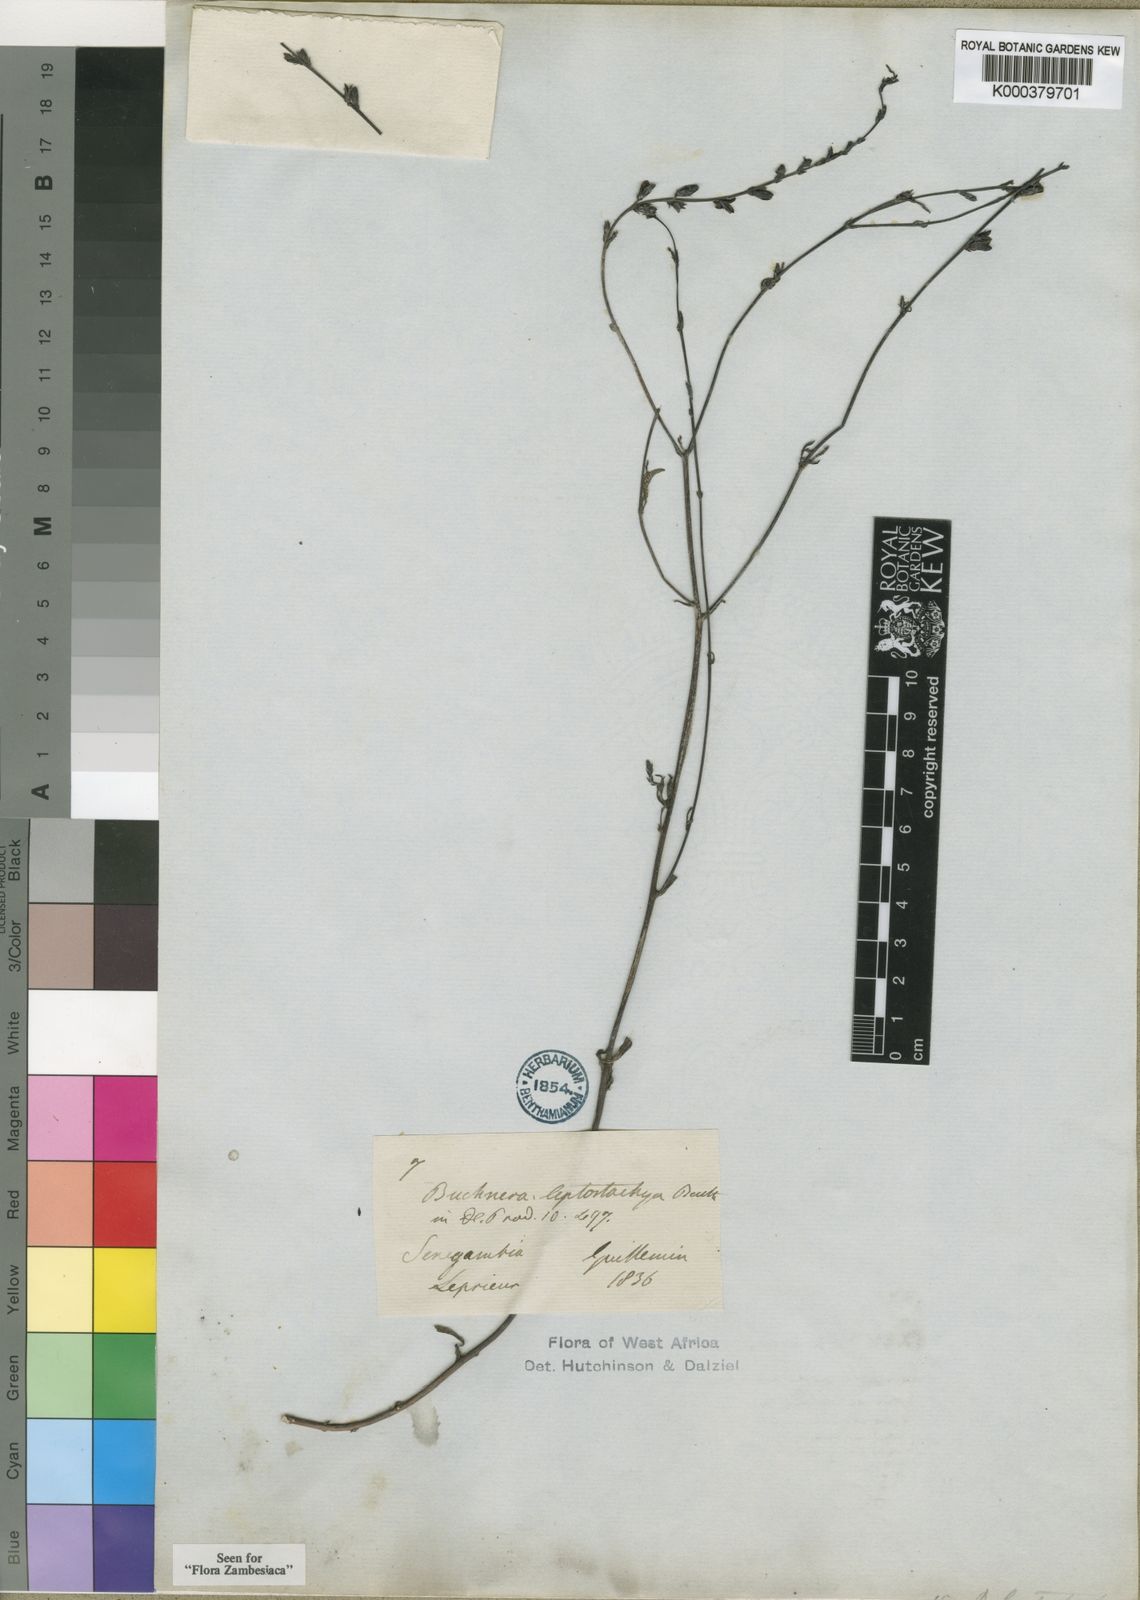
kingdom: Plantae
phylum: Tracheophyta
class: Magnoliopsida
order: Lamiales
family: Orobanchaceae
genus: Buchnera
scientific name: Buchnera leptostachya
